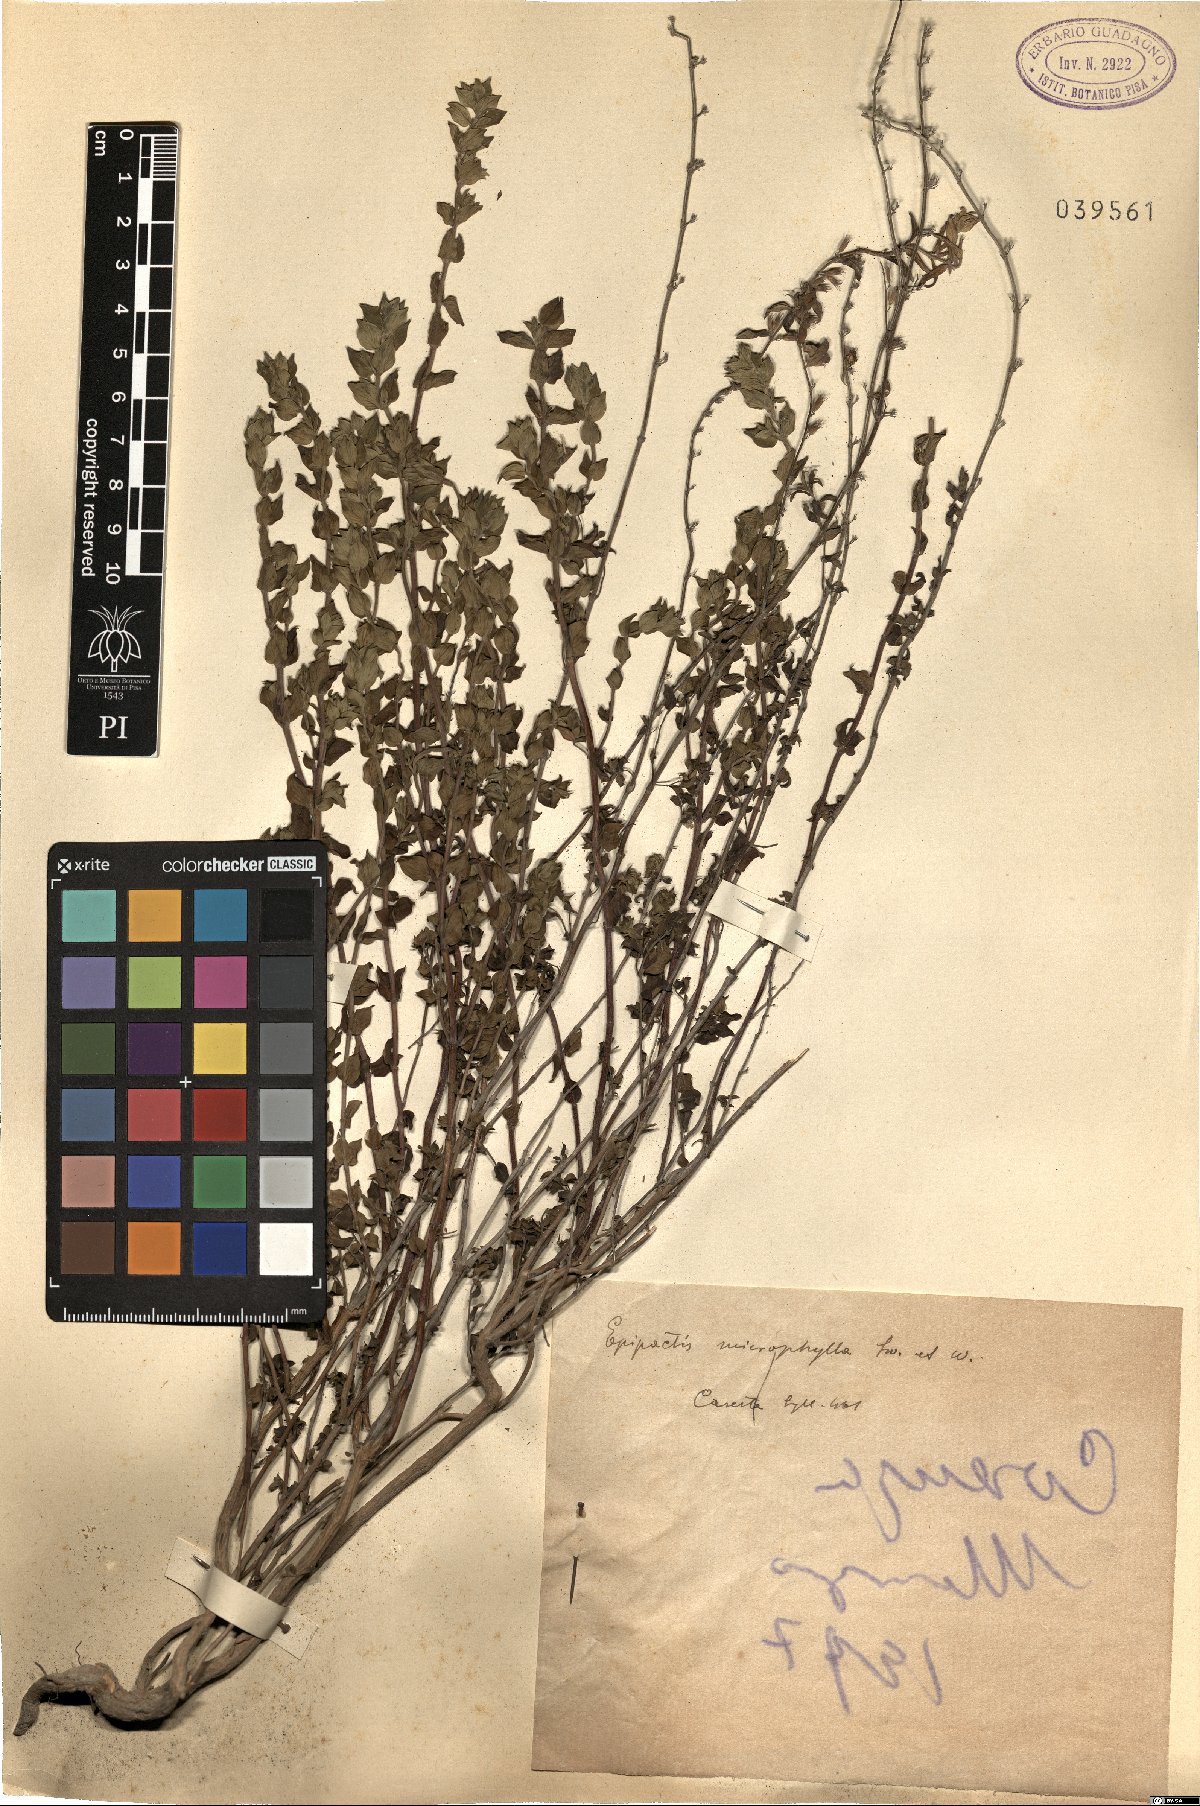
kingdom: Plantae
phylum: Tracheophyta
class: Magnoliopsida
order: Lamiales
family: Lamiaceae
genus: Micromeria
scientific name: Micromeria
